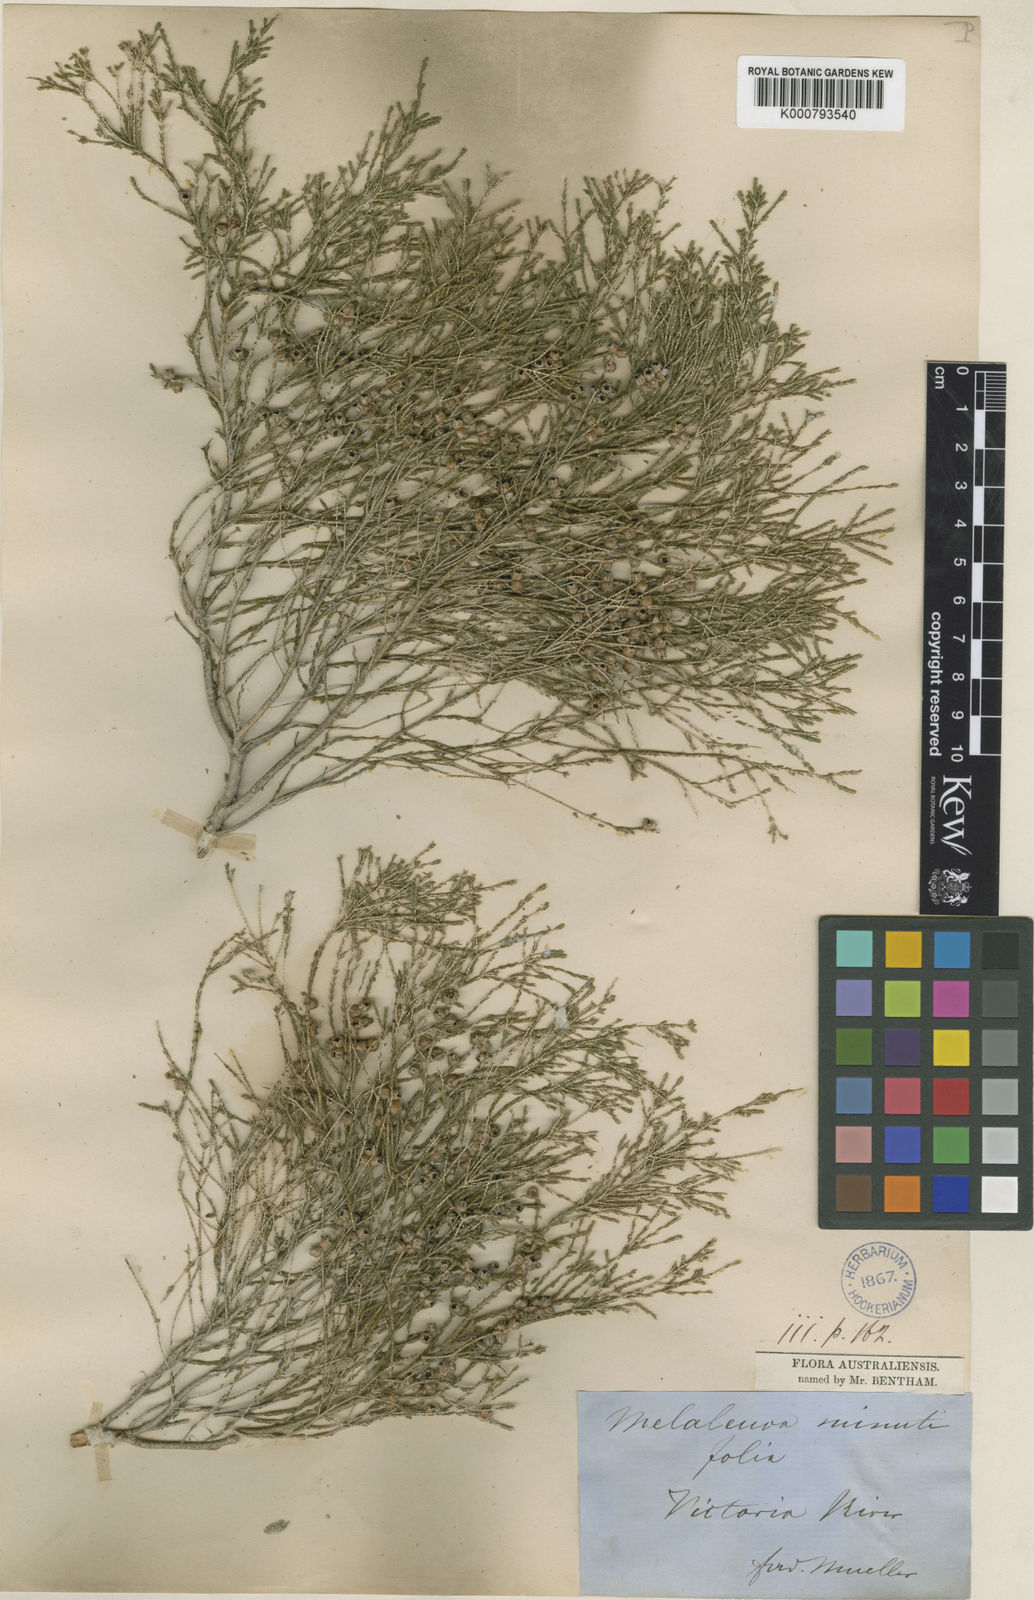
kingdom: Plantae
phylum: Tracheophyta
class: Magnoliopsida
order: Myrtales
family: Myrtaceae
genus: Melaleuca
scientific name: Melaleuca minutifolia
